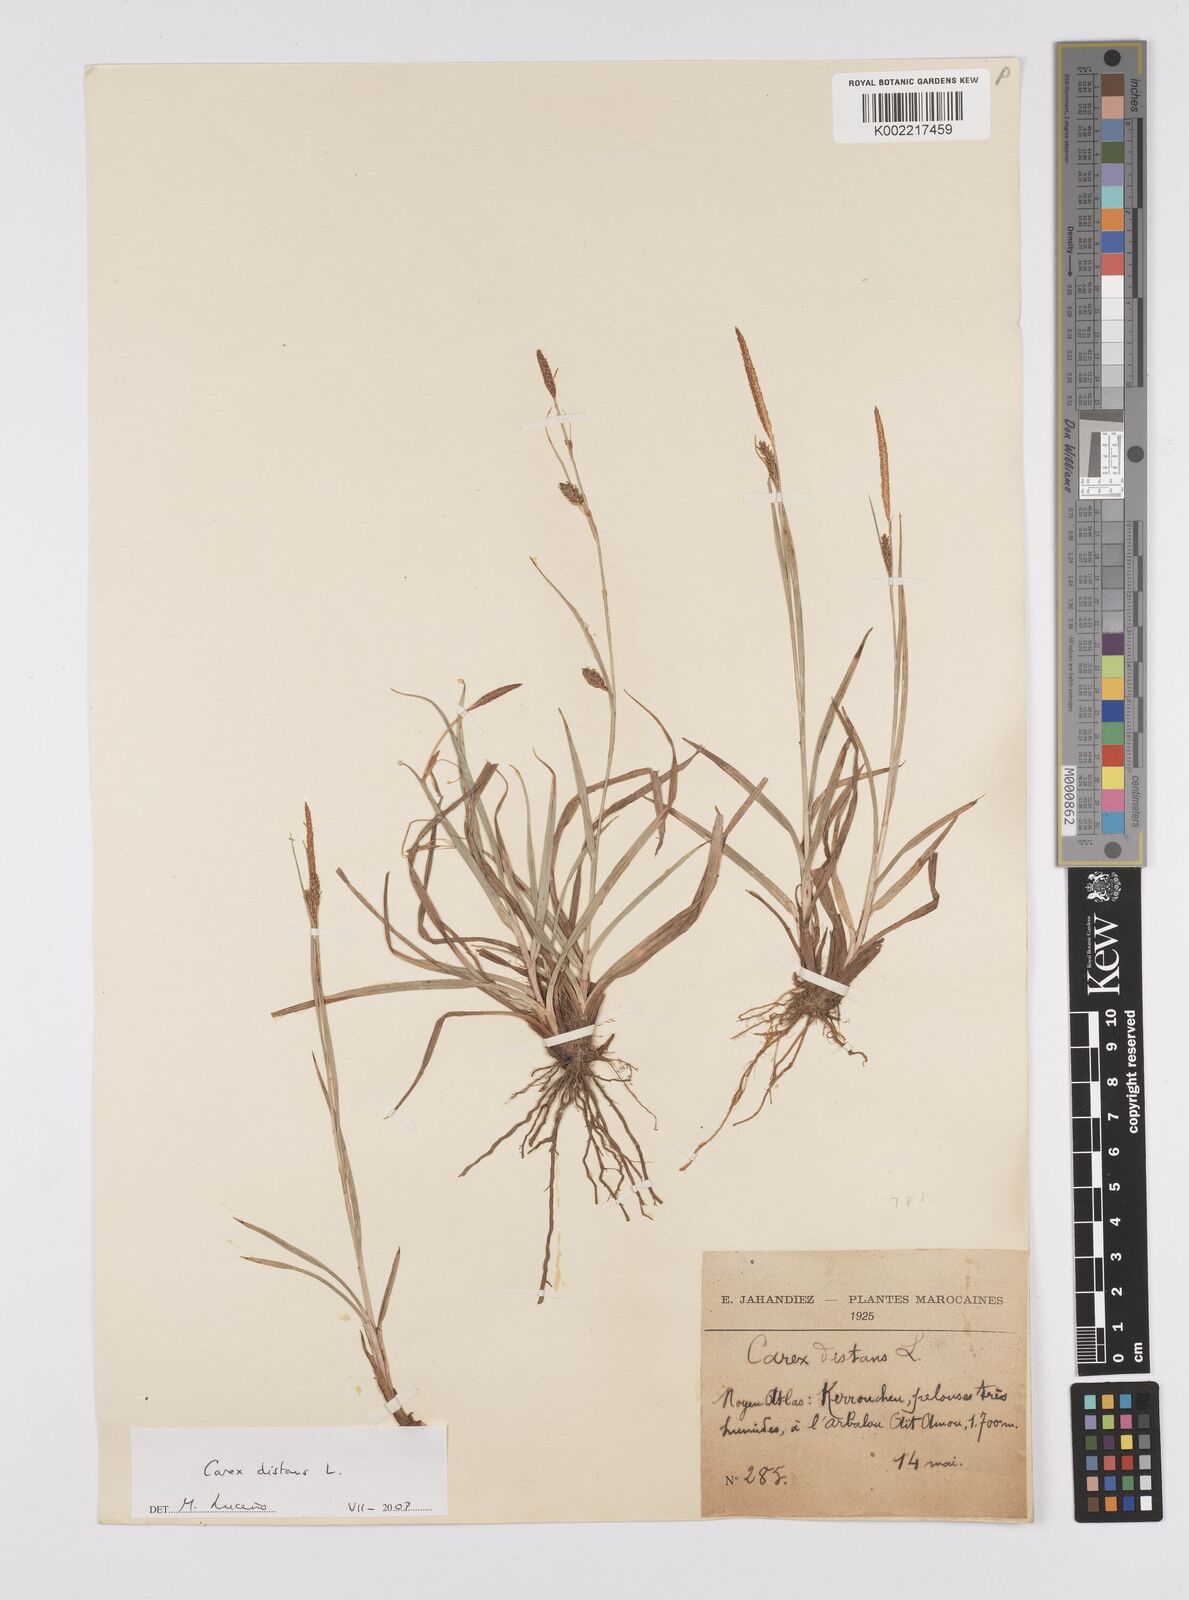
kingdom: Plantae
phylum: Tracheophyta
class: Liliopsida
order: Poales
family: Cyperaceae
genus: Carex
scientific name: Carex distans
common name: Distant sedge
